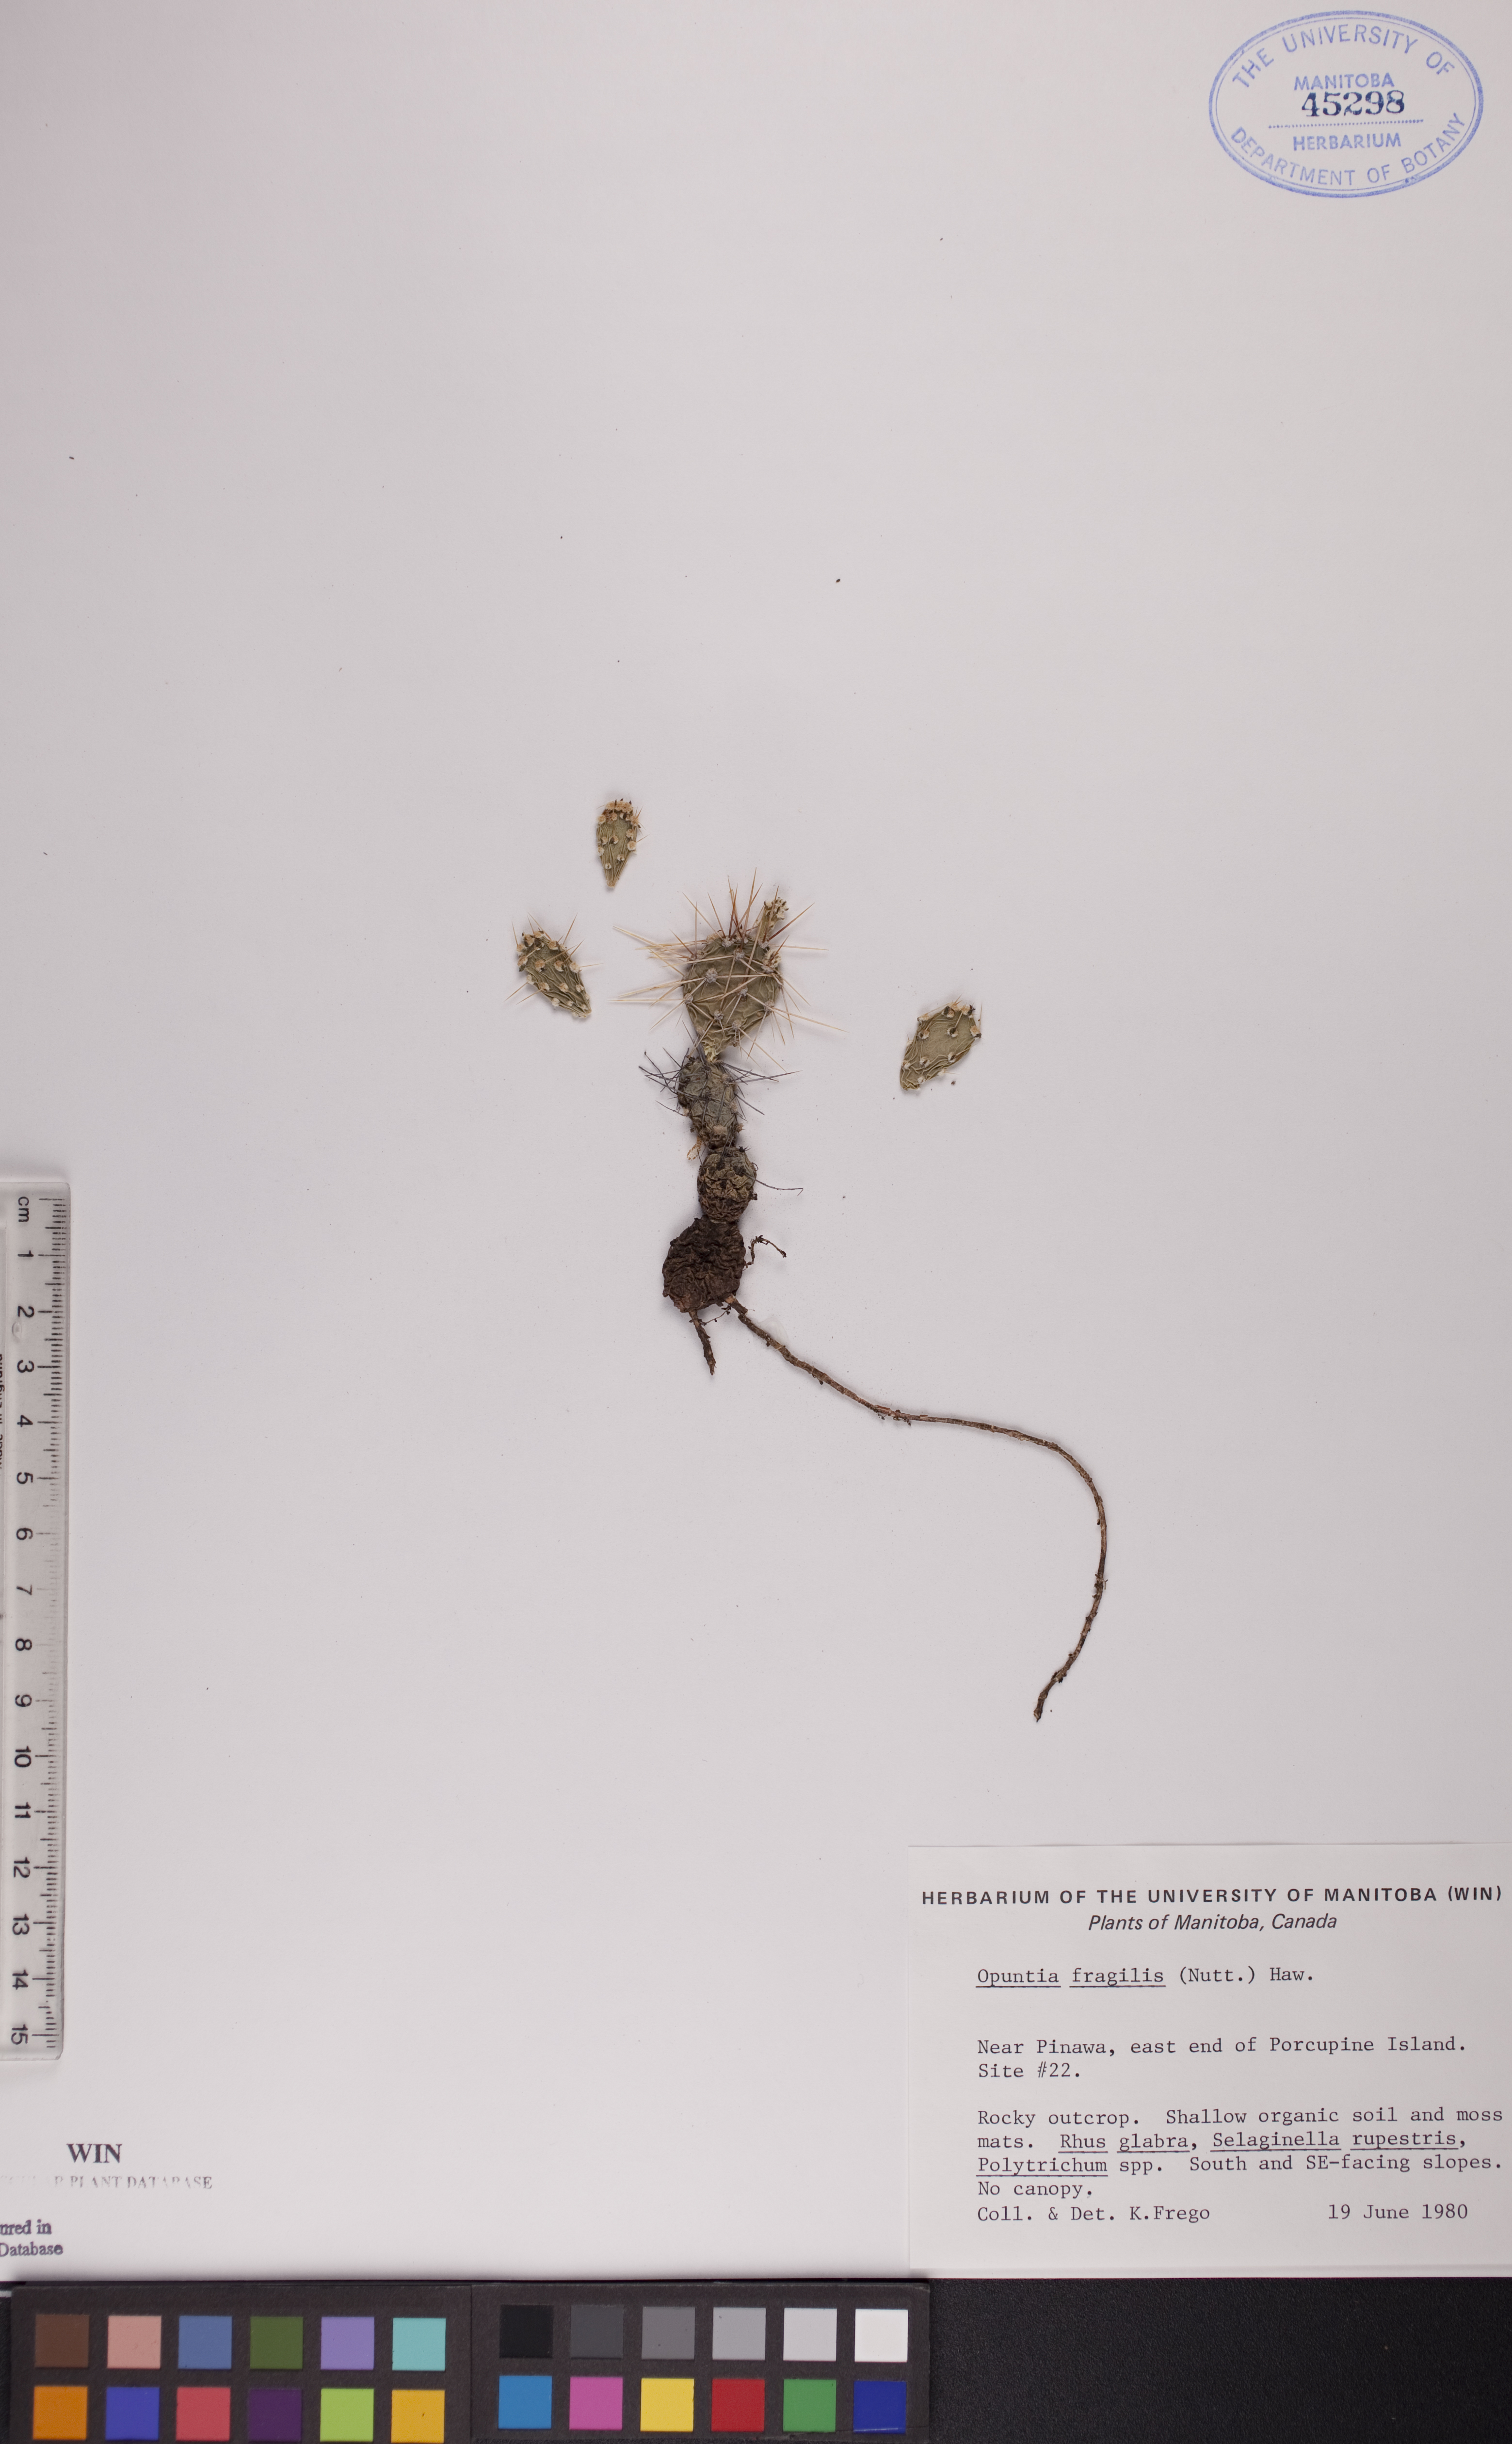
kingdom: Plantae
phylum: Tracheophyta
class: Magnoliopsida
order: Caryophyllales
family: Cactaceae
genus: Opuntia
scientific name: Opuntia fragilis
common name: Brittle cactus
